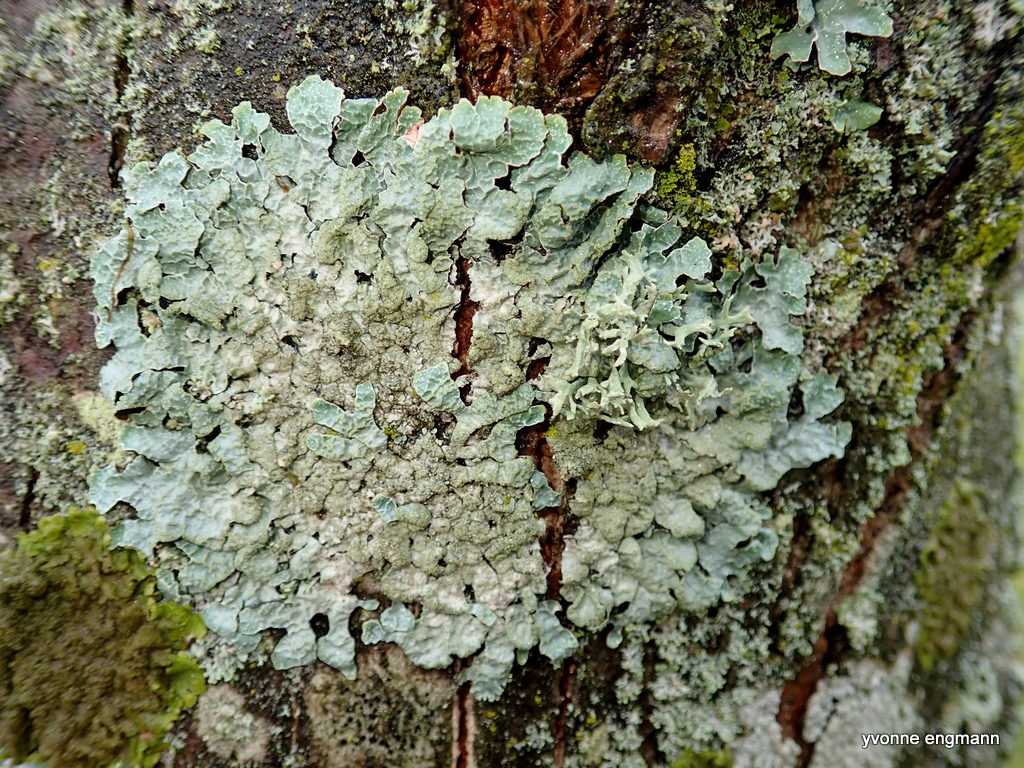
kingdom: Fungi
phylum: Ascomycota
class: Lecanoromycetes
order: Lecanorales
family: Parmeliaceae
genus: Parmelia
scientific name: Parmelia sulcata
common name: rynket skållav
